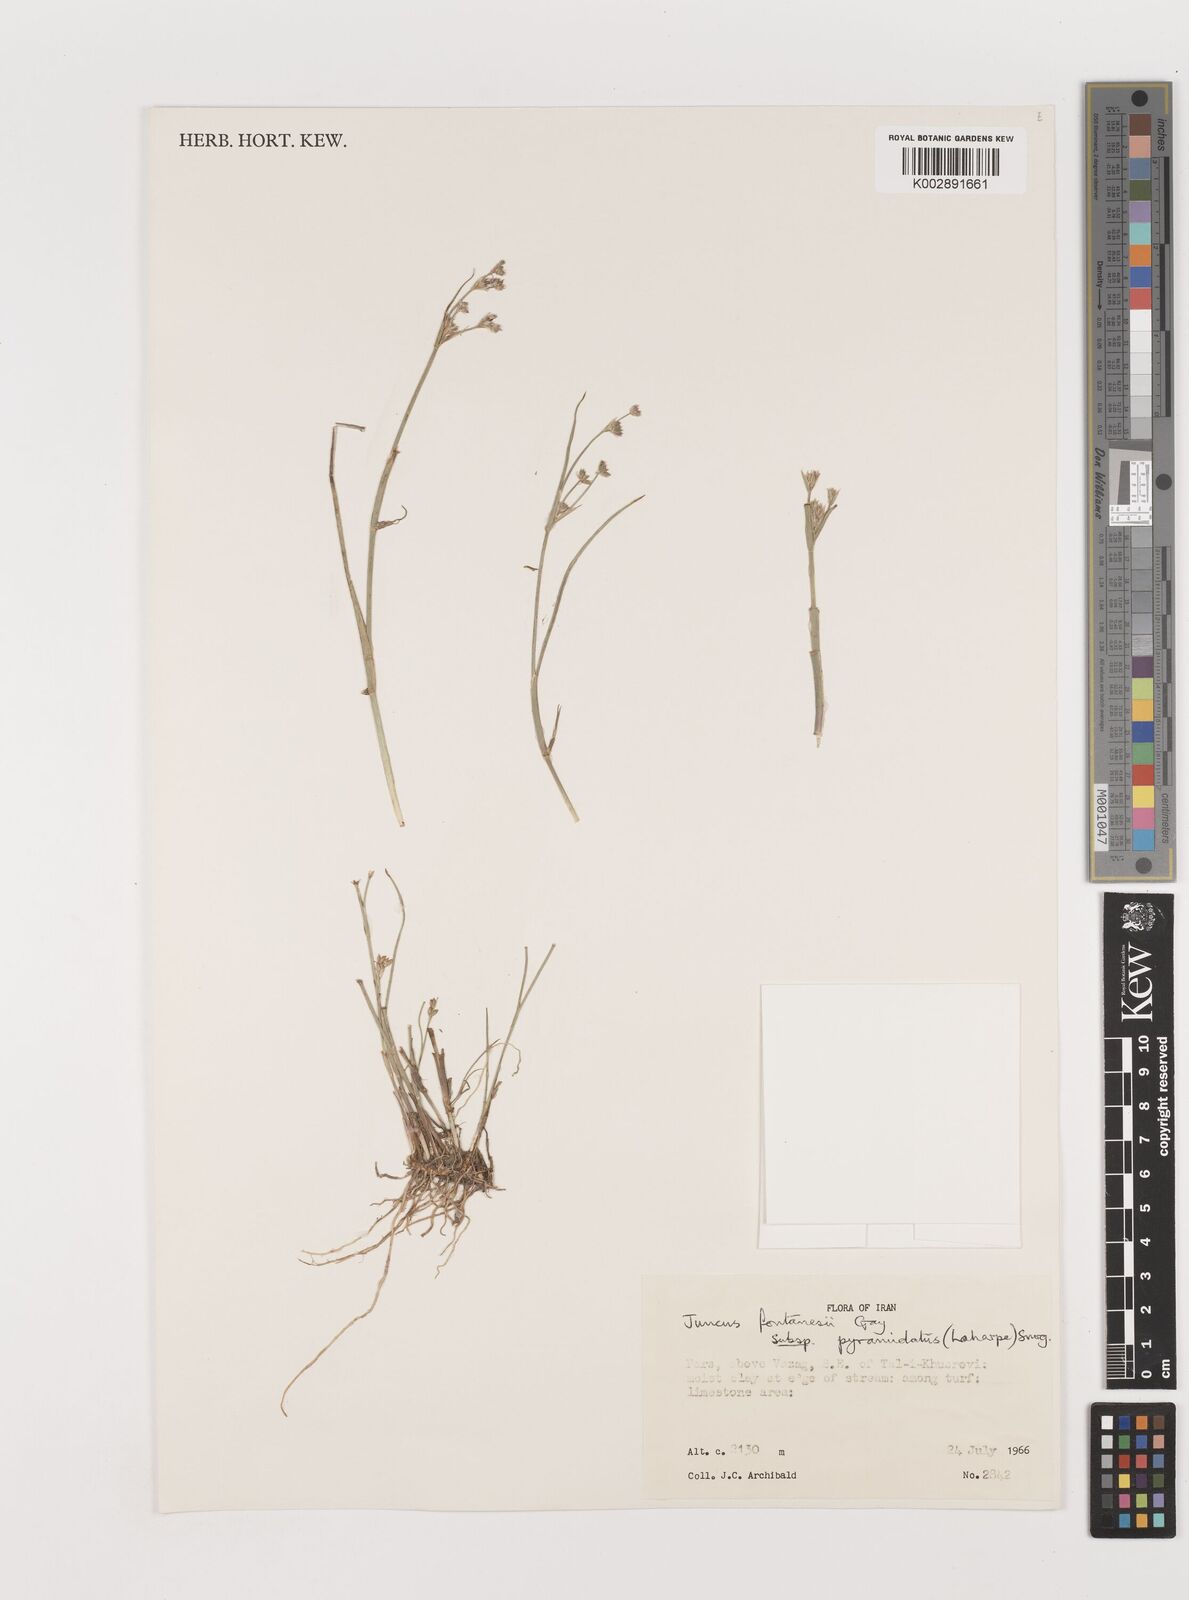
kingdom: Plantae
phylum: Tracheophyta
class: Liliopsida
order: Poales
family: Juncaceae
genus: Juncus
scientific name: Juncus fontanesii
